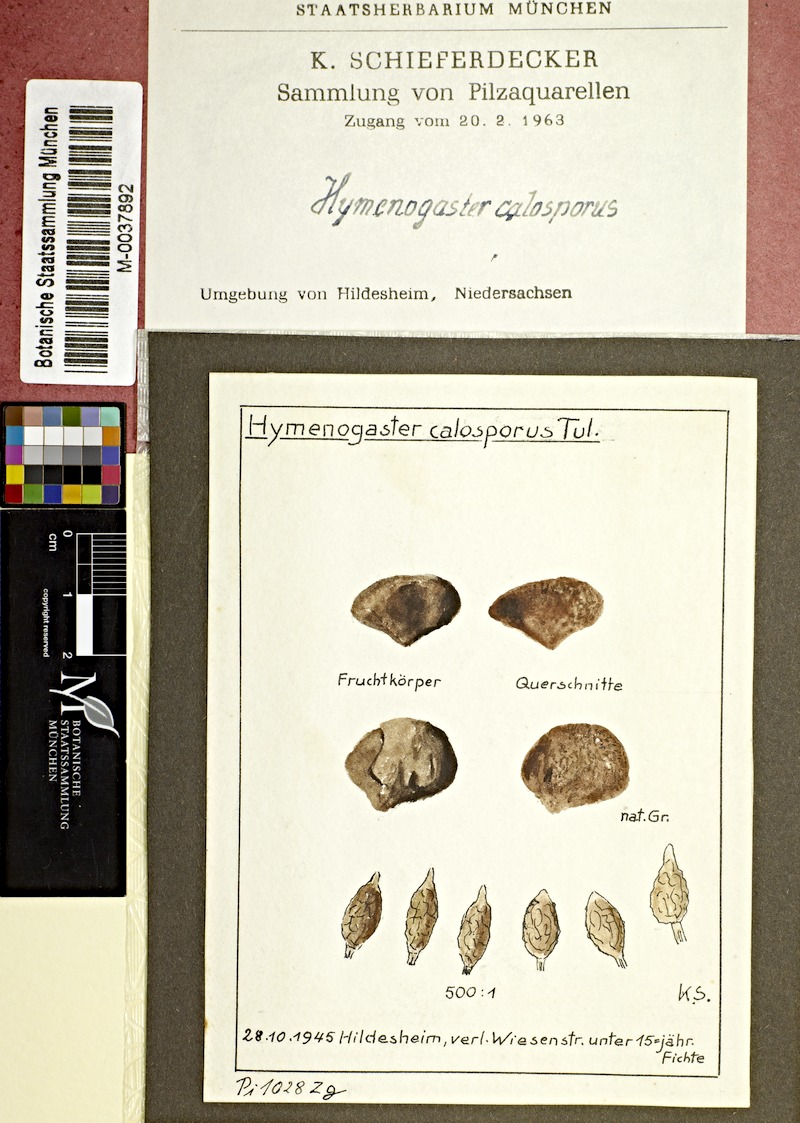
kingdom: Fungi
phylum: Basidiomycota
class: Agaricomycetes
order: Agaricales
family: Hymenogastraceae
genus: Hymenogaster
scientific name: Hymenogaster calosporus
